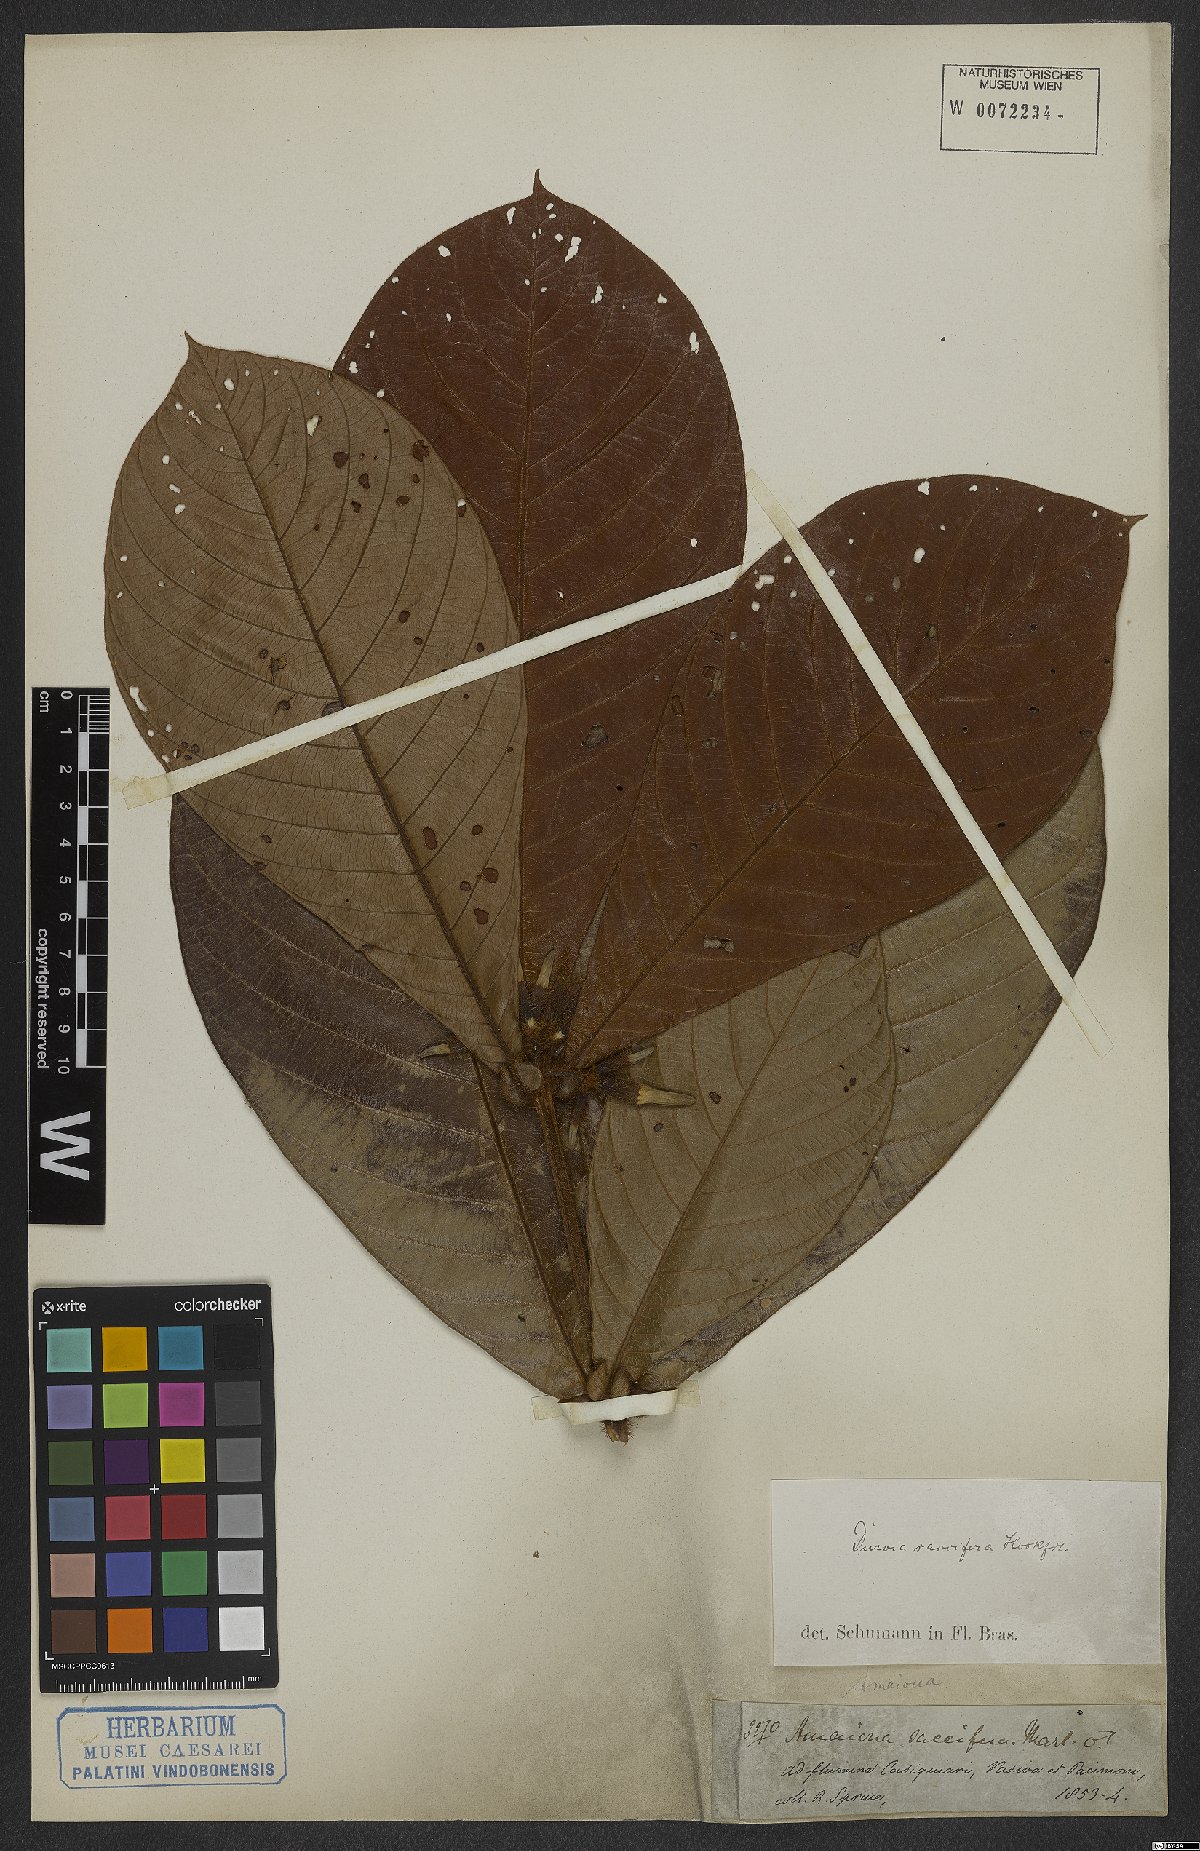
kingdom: Plantae
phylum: Tracheophyta
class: Magnoliopsida
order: Gentianales
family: Rubiaceae
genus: Duroia
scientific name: Duroia saccifera
